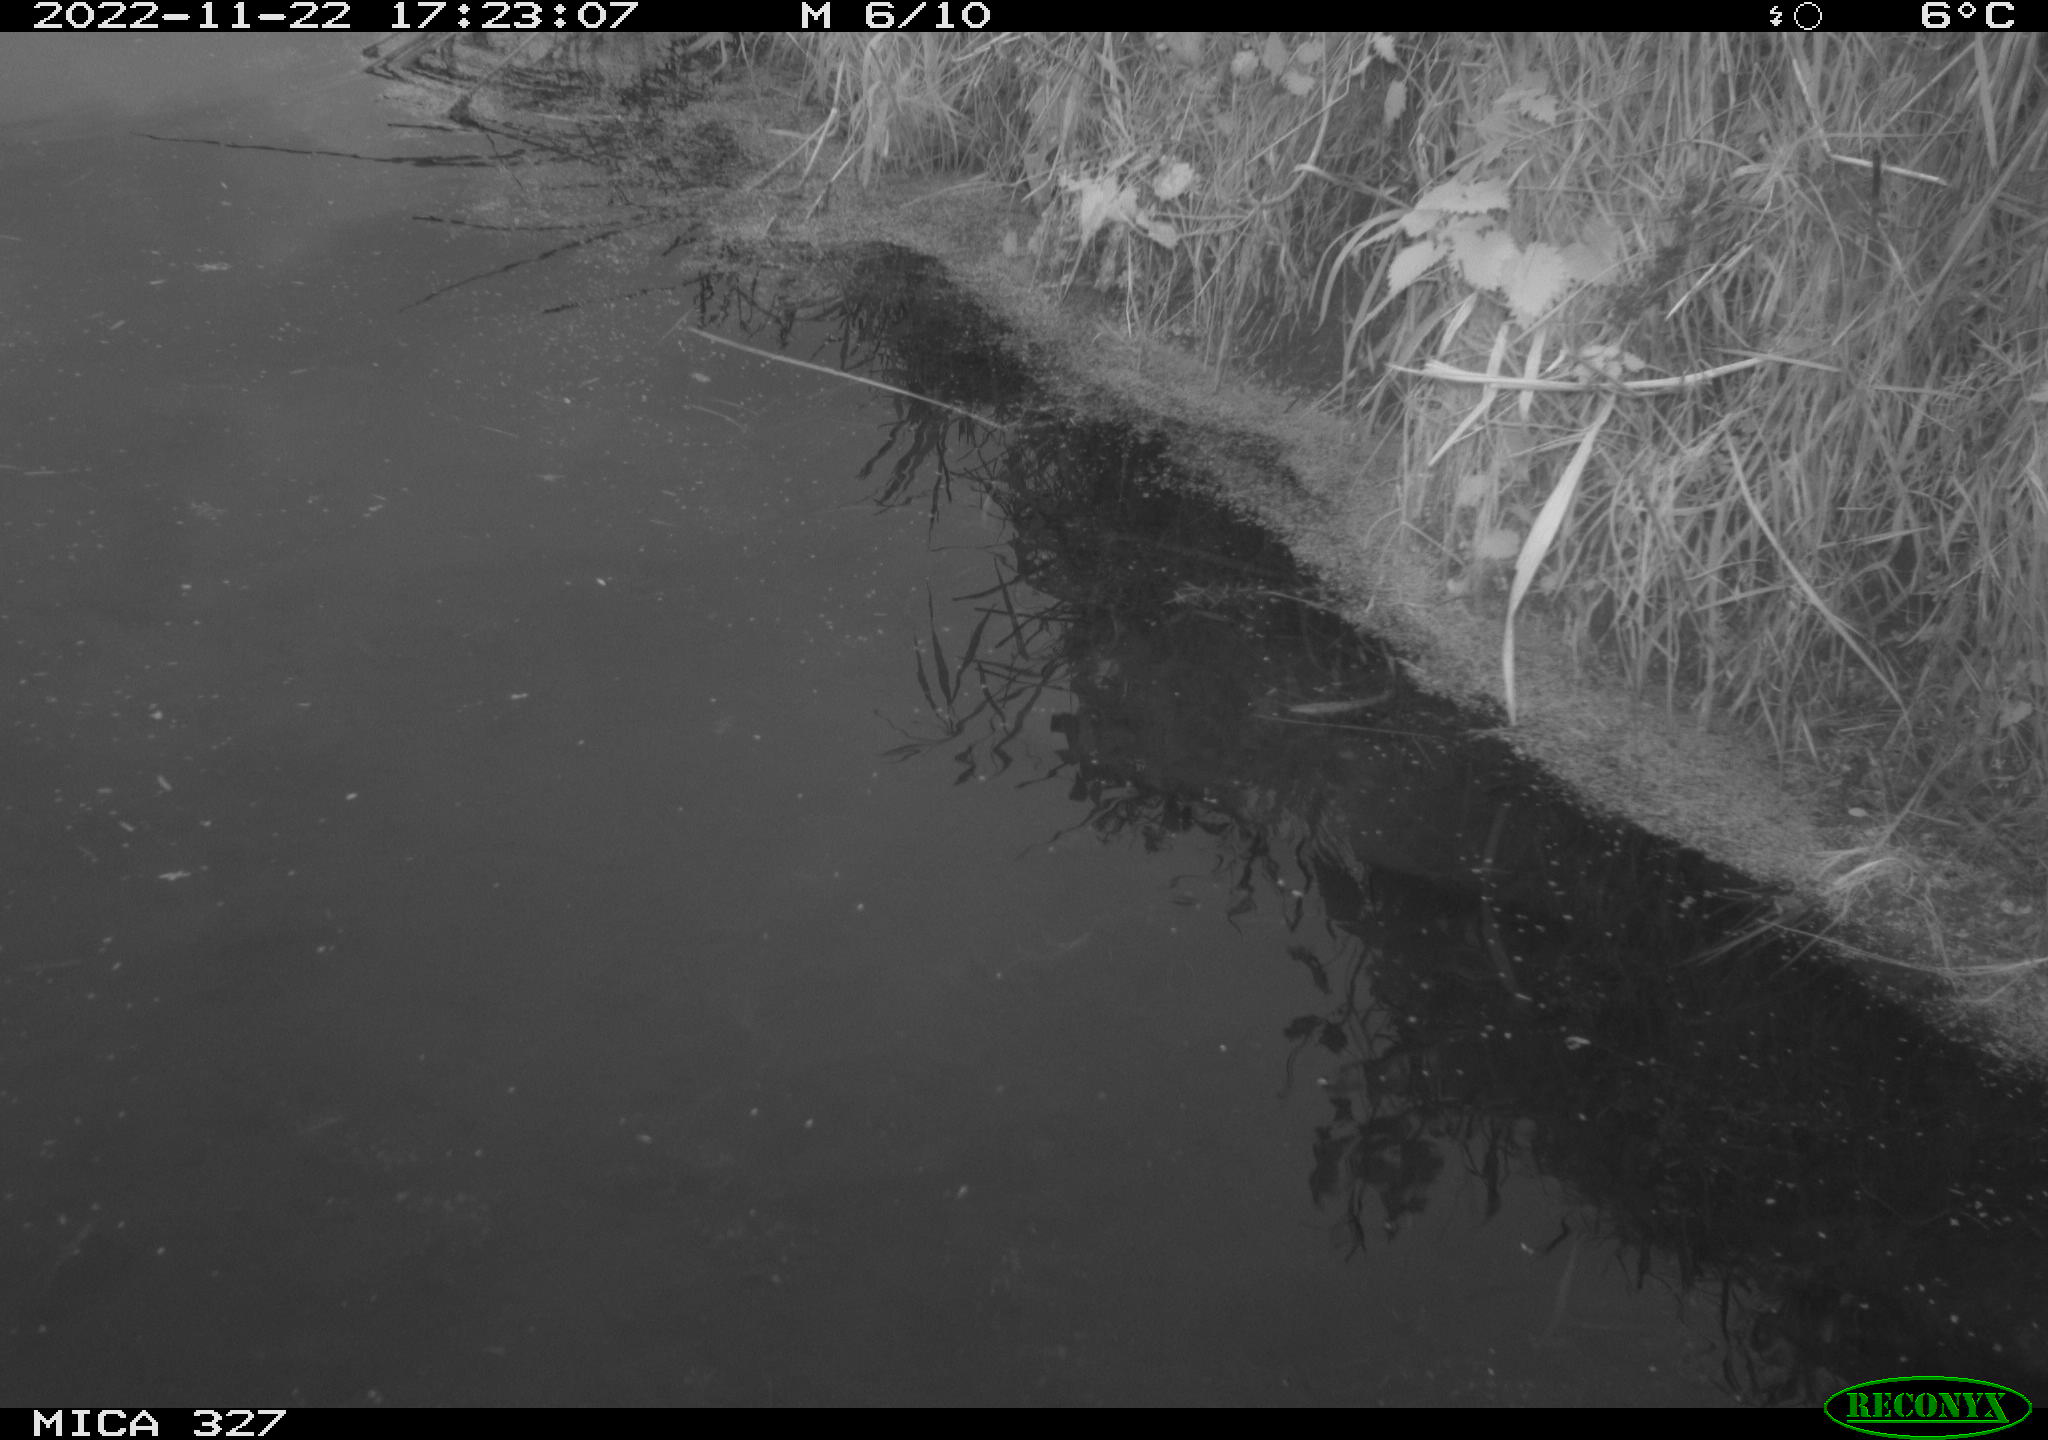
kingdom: Animalia
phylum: Chordata
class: Aves
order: Gruiformes
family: Rallidae
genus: Gallinula
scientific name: Gallinula chloropus
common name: Common moorhen
